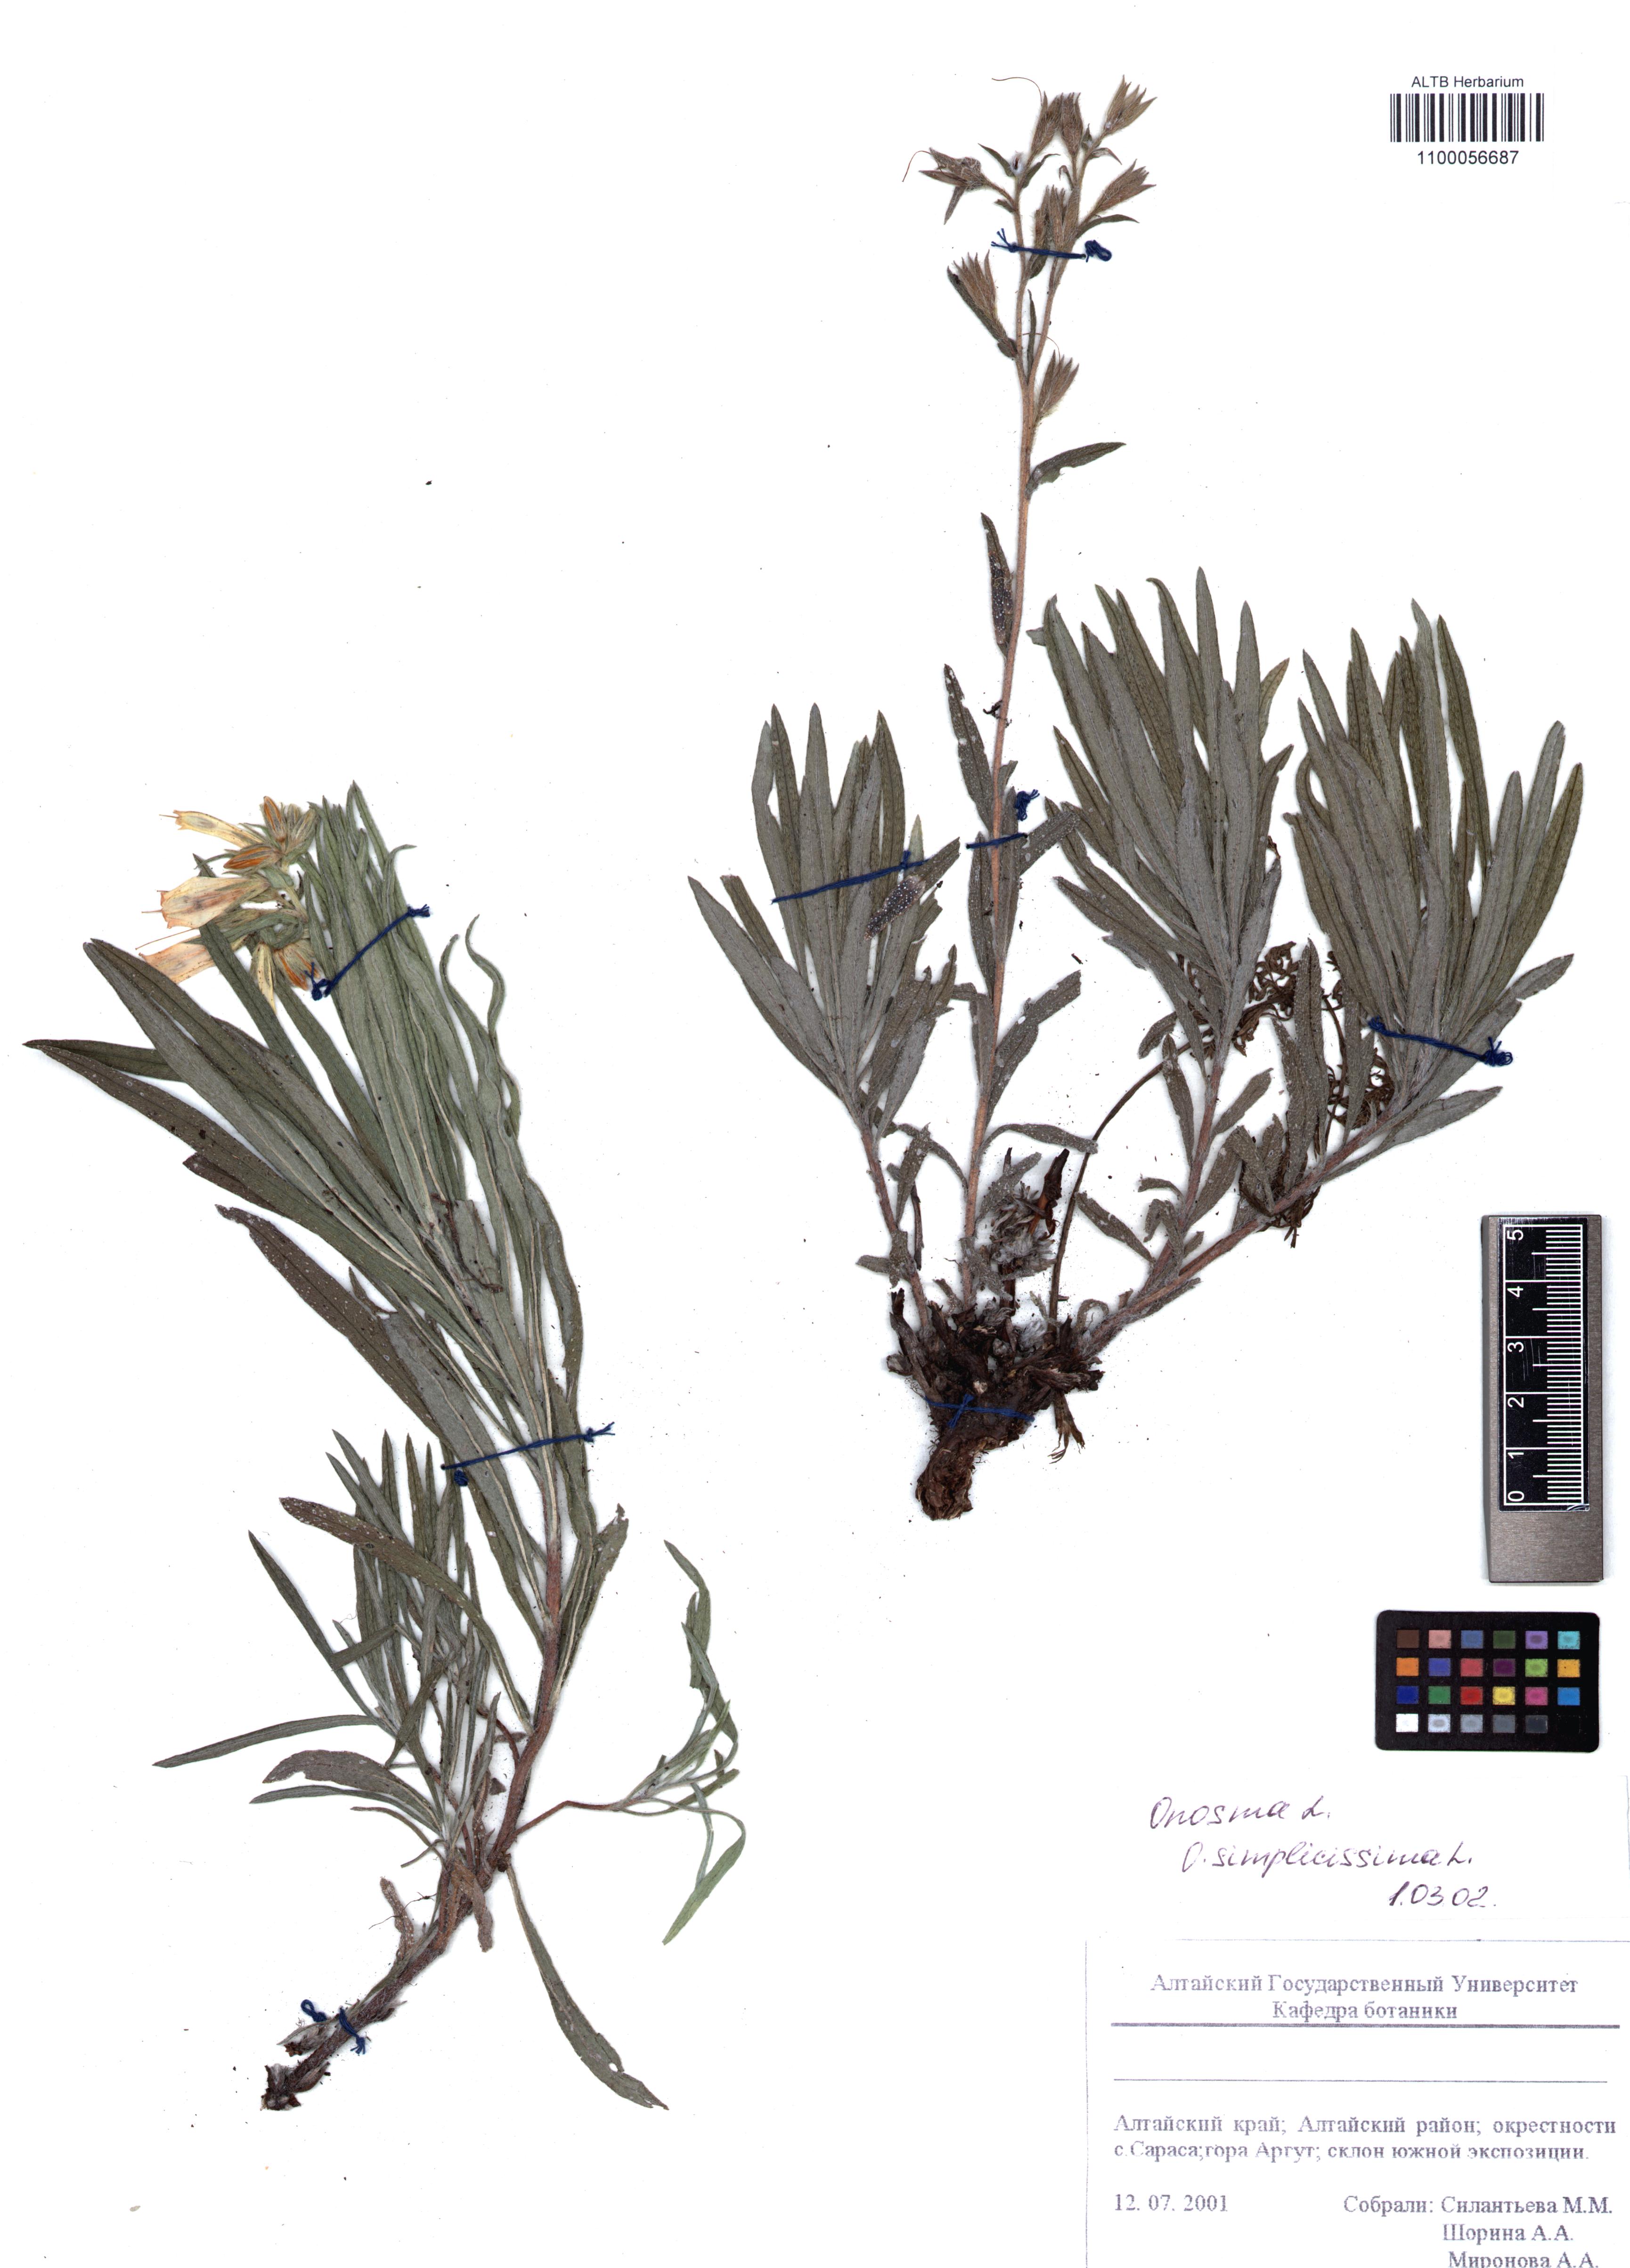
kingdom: Plantae
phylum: Tracheophyta
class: Magnoliopsida
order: Boraginales
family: Boraginaceae
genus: Onosma
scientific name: Onosma simplicissima
